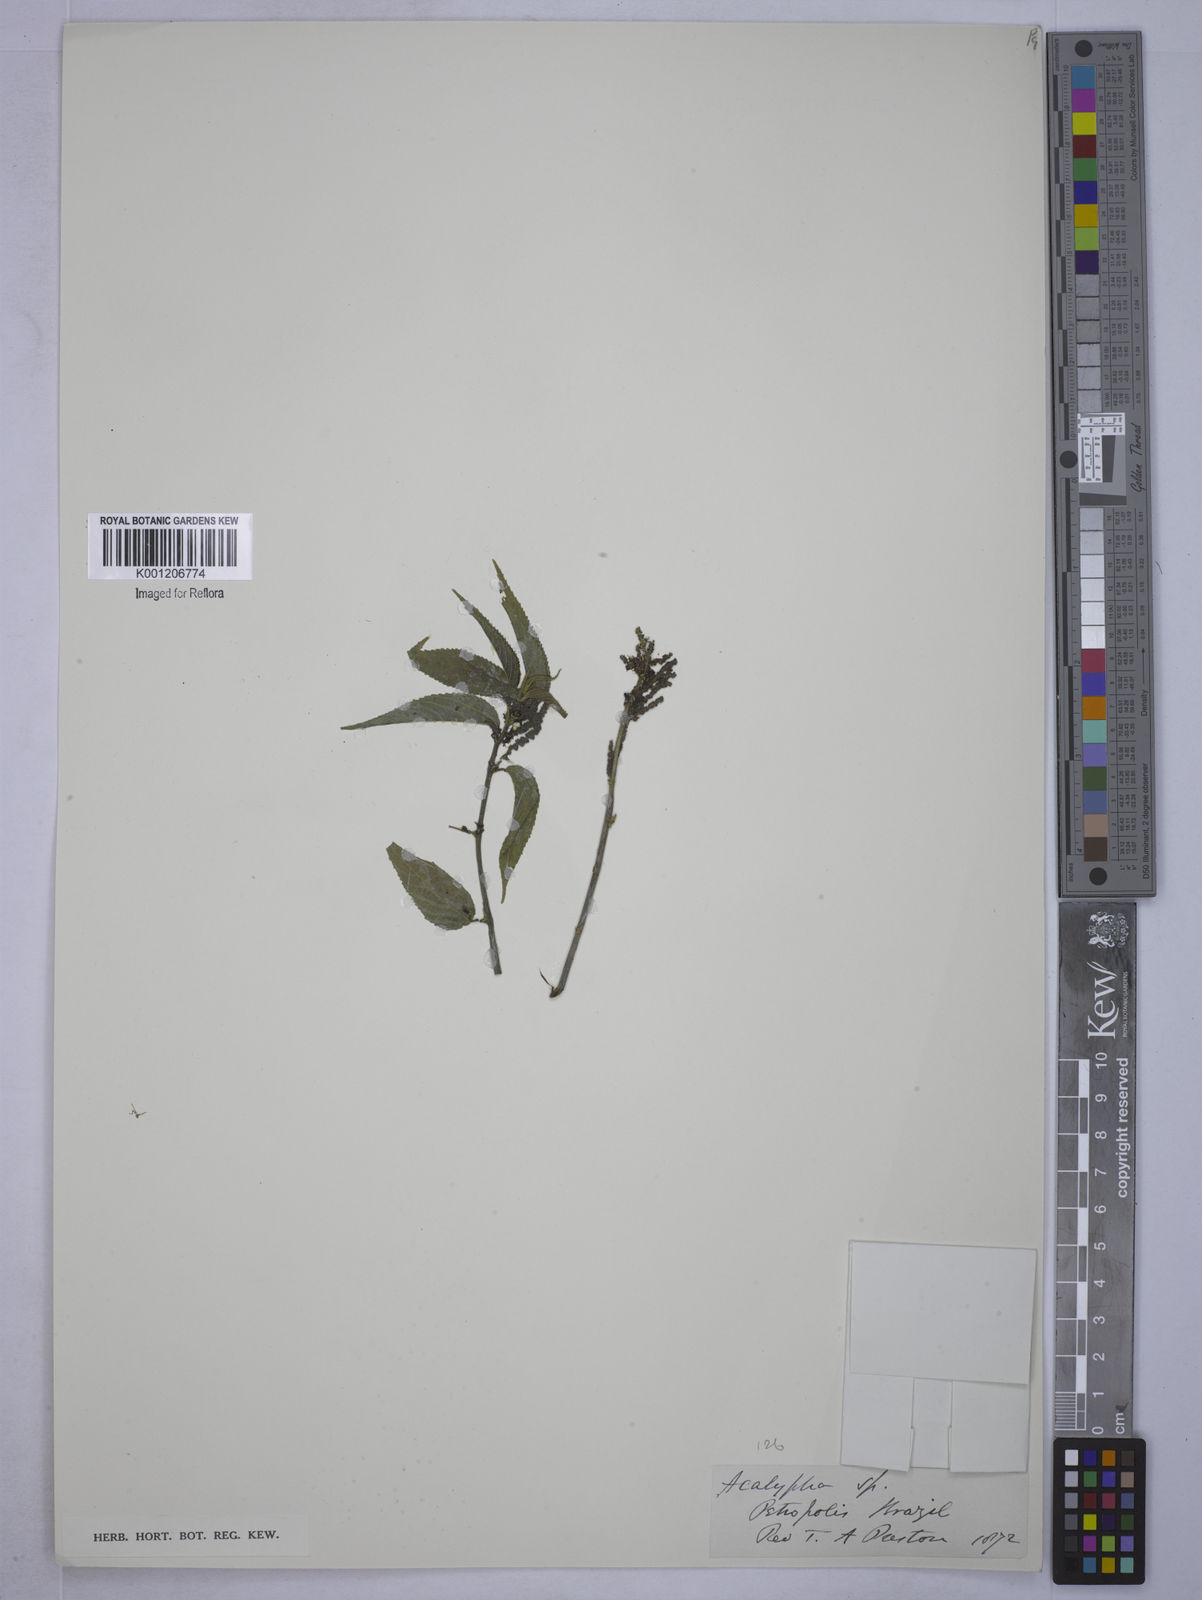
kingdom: Plantae
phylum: Tracheophyta
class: Magnoliopsida
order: Malpighiales
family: Euphorbiaceae
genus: Acalypha
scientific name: Acalypha
